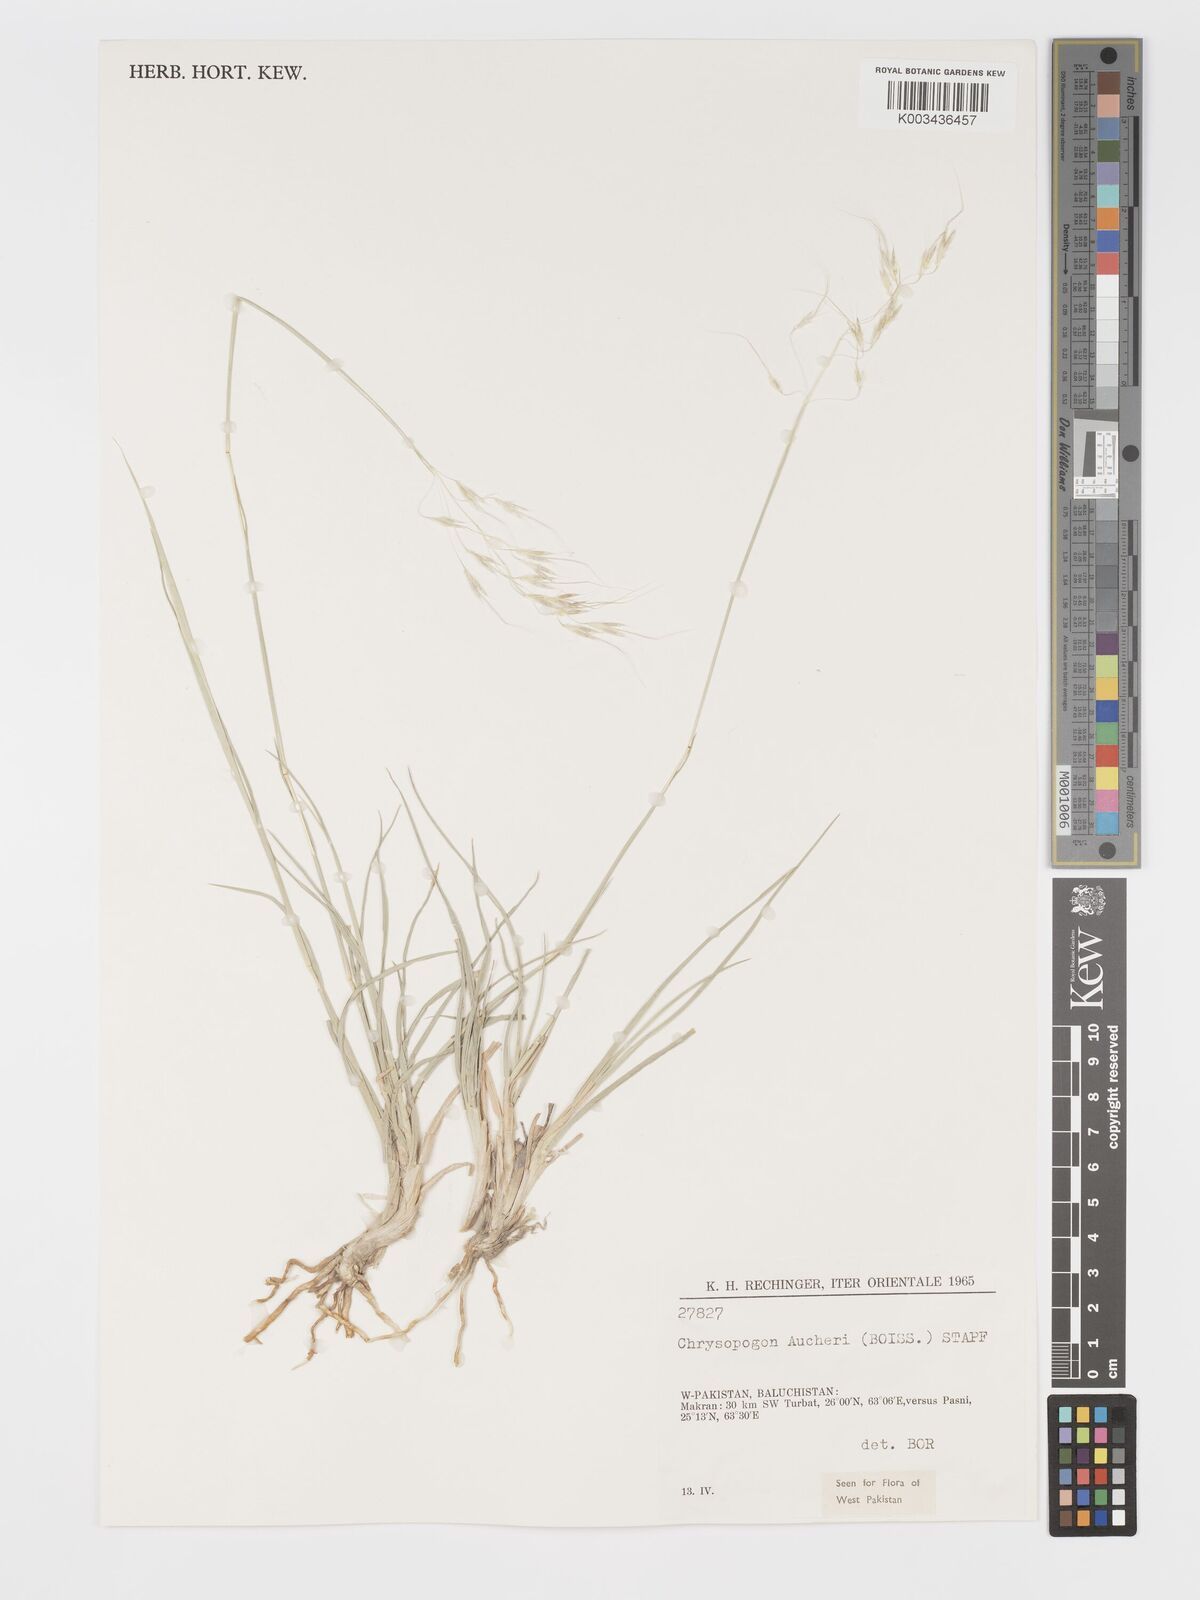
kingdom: Plantae
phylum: Tracheophyta
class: Liliopsida
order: Poales
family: Poaceae
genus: Chrysopogon
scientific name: Chrysopogon aucheri
